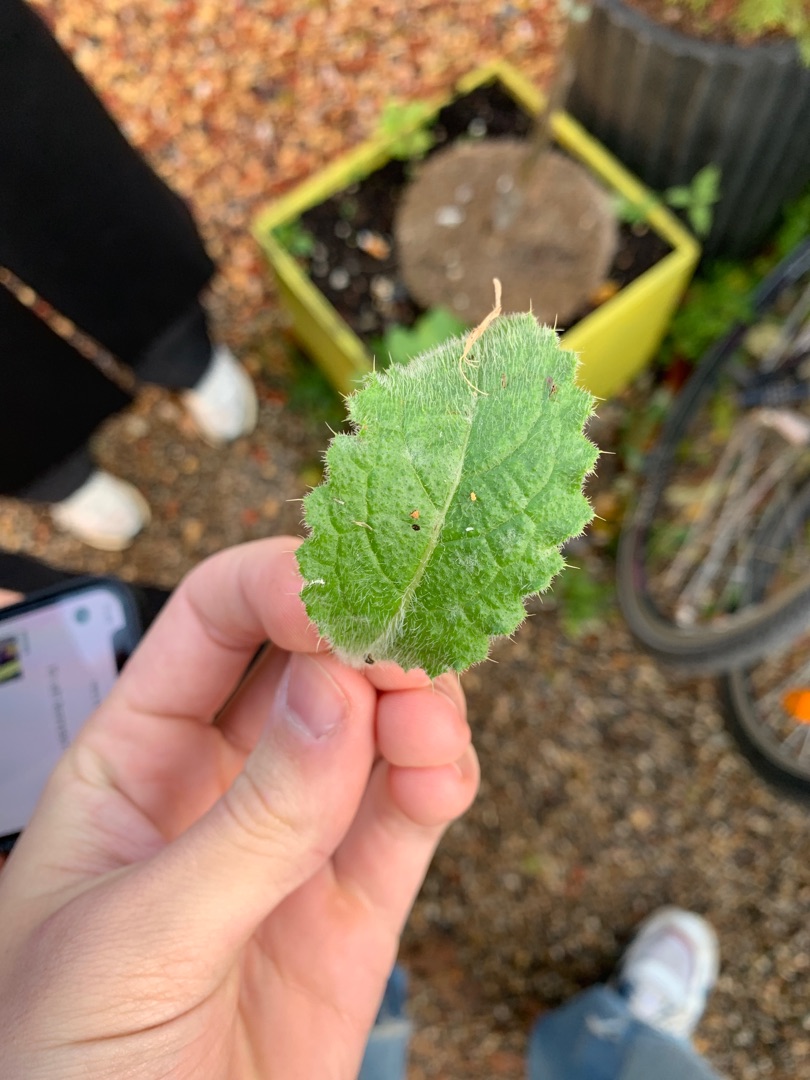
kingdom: Plantae
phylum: Tracheophyta
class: Magnoliopsida
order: Asterales
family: Asteraceae
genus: Cirsium
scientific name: Cirsium vulgare
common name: Horse-tidsel
